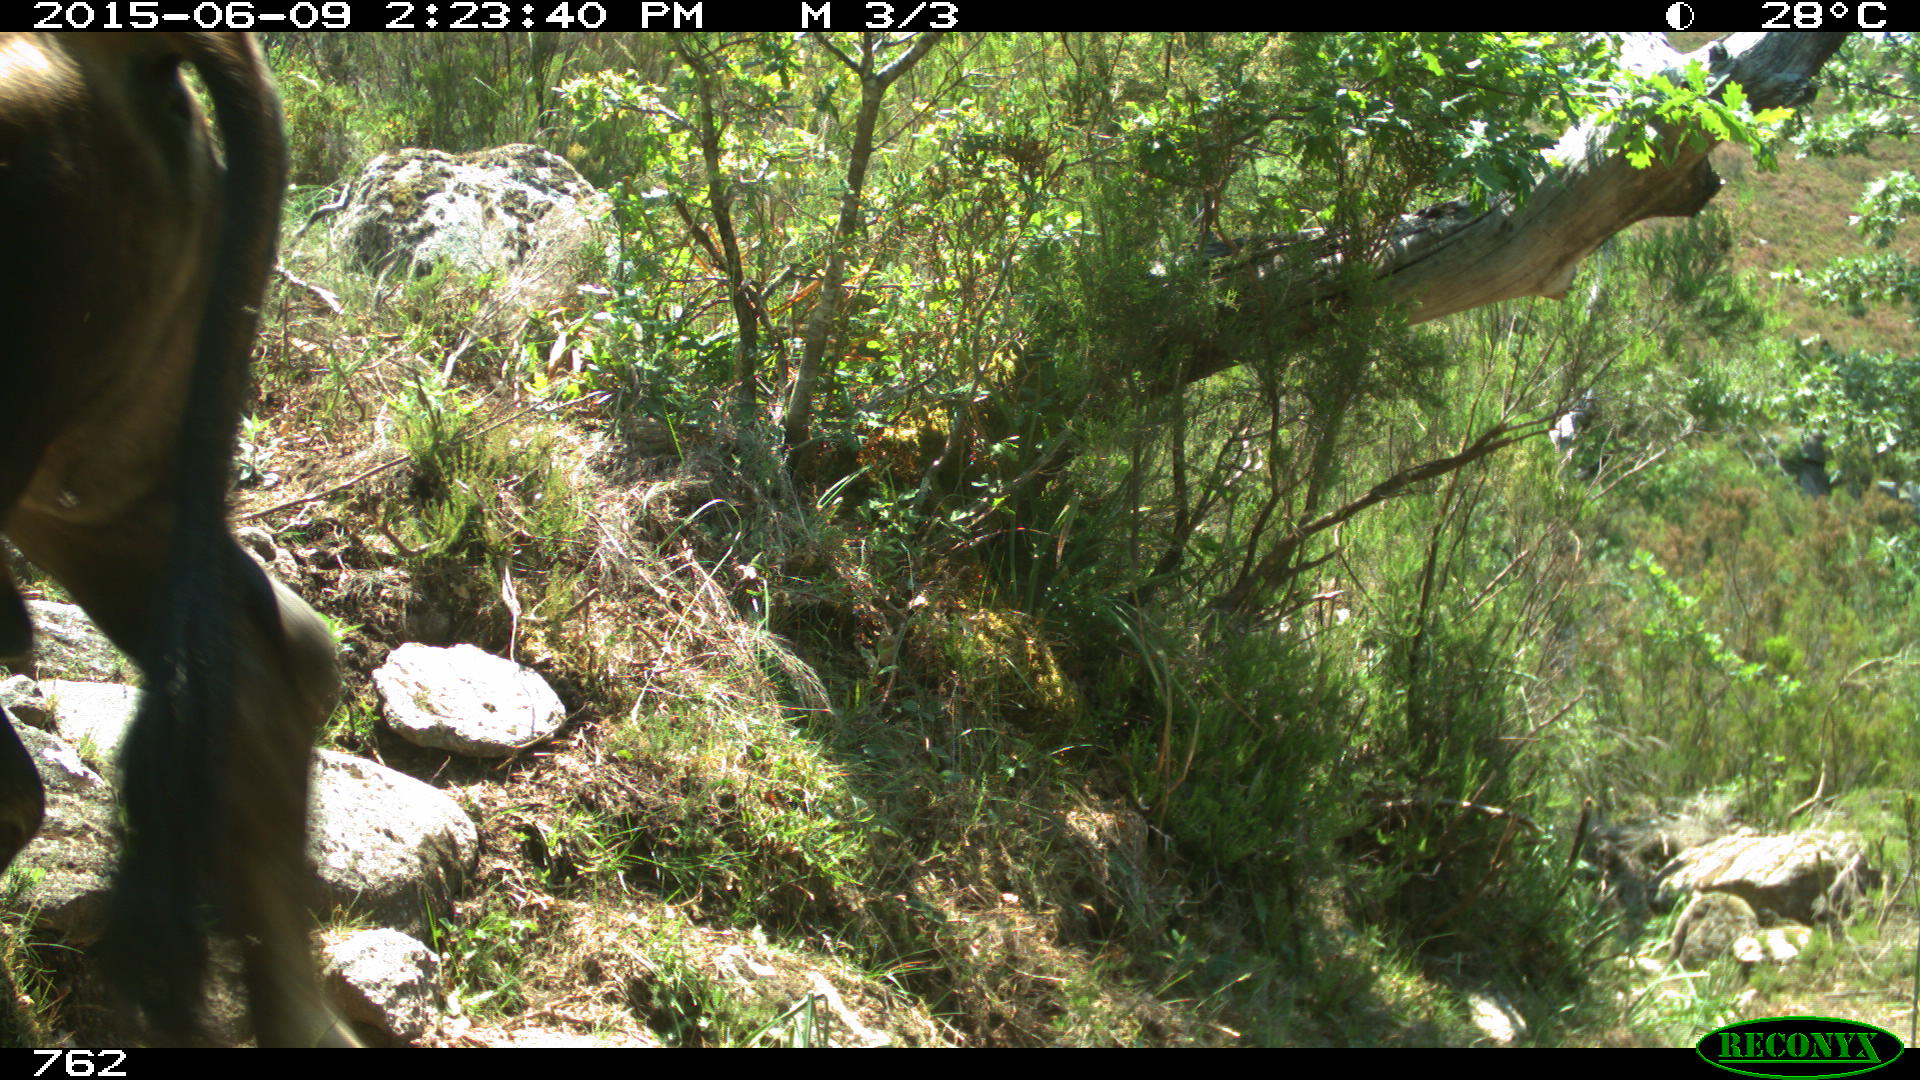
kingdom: Animalia
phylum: Chordata
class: Mammalia
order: Artiodactyla
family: Bovidae
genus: Bos
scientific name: Bos taurus
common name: Domesticated cattle
